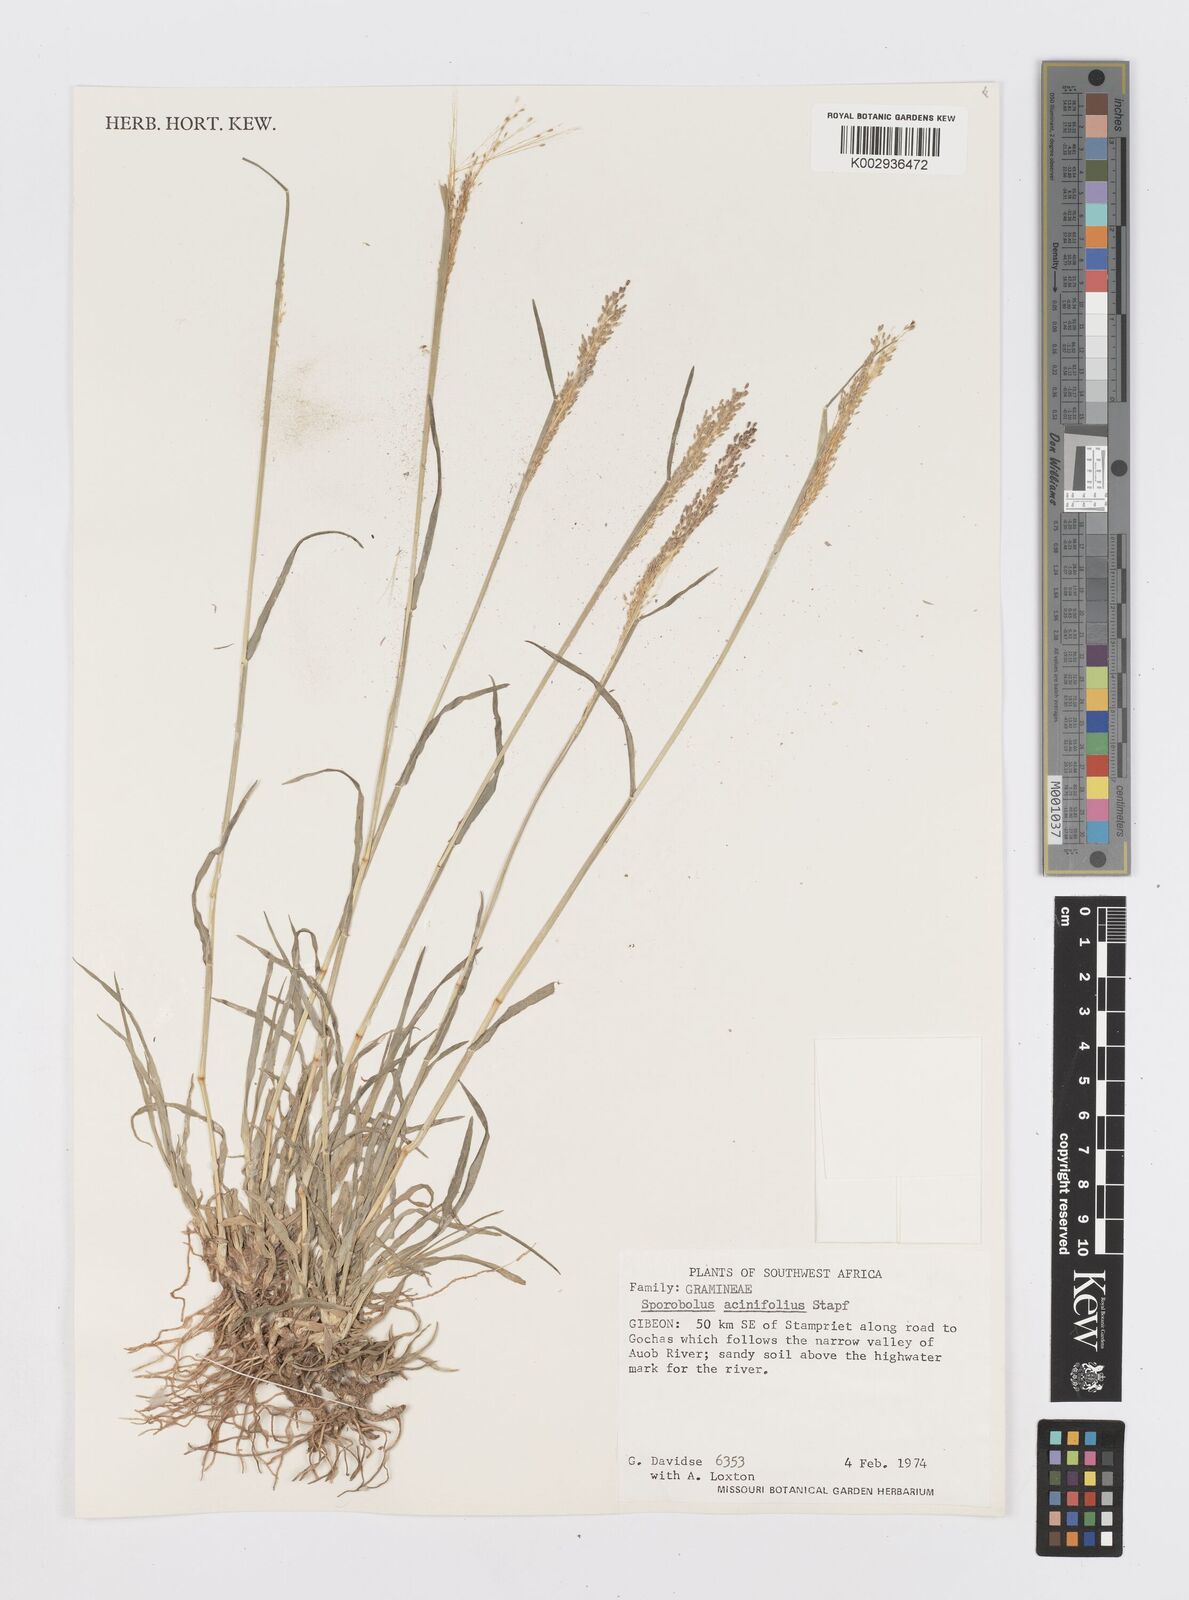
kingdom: Plantae
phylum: Tracheophyta
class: Liliopsida
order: Poales
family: Poaceae
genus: Sporobolus
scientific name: Sporobolus acinifolius
